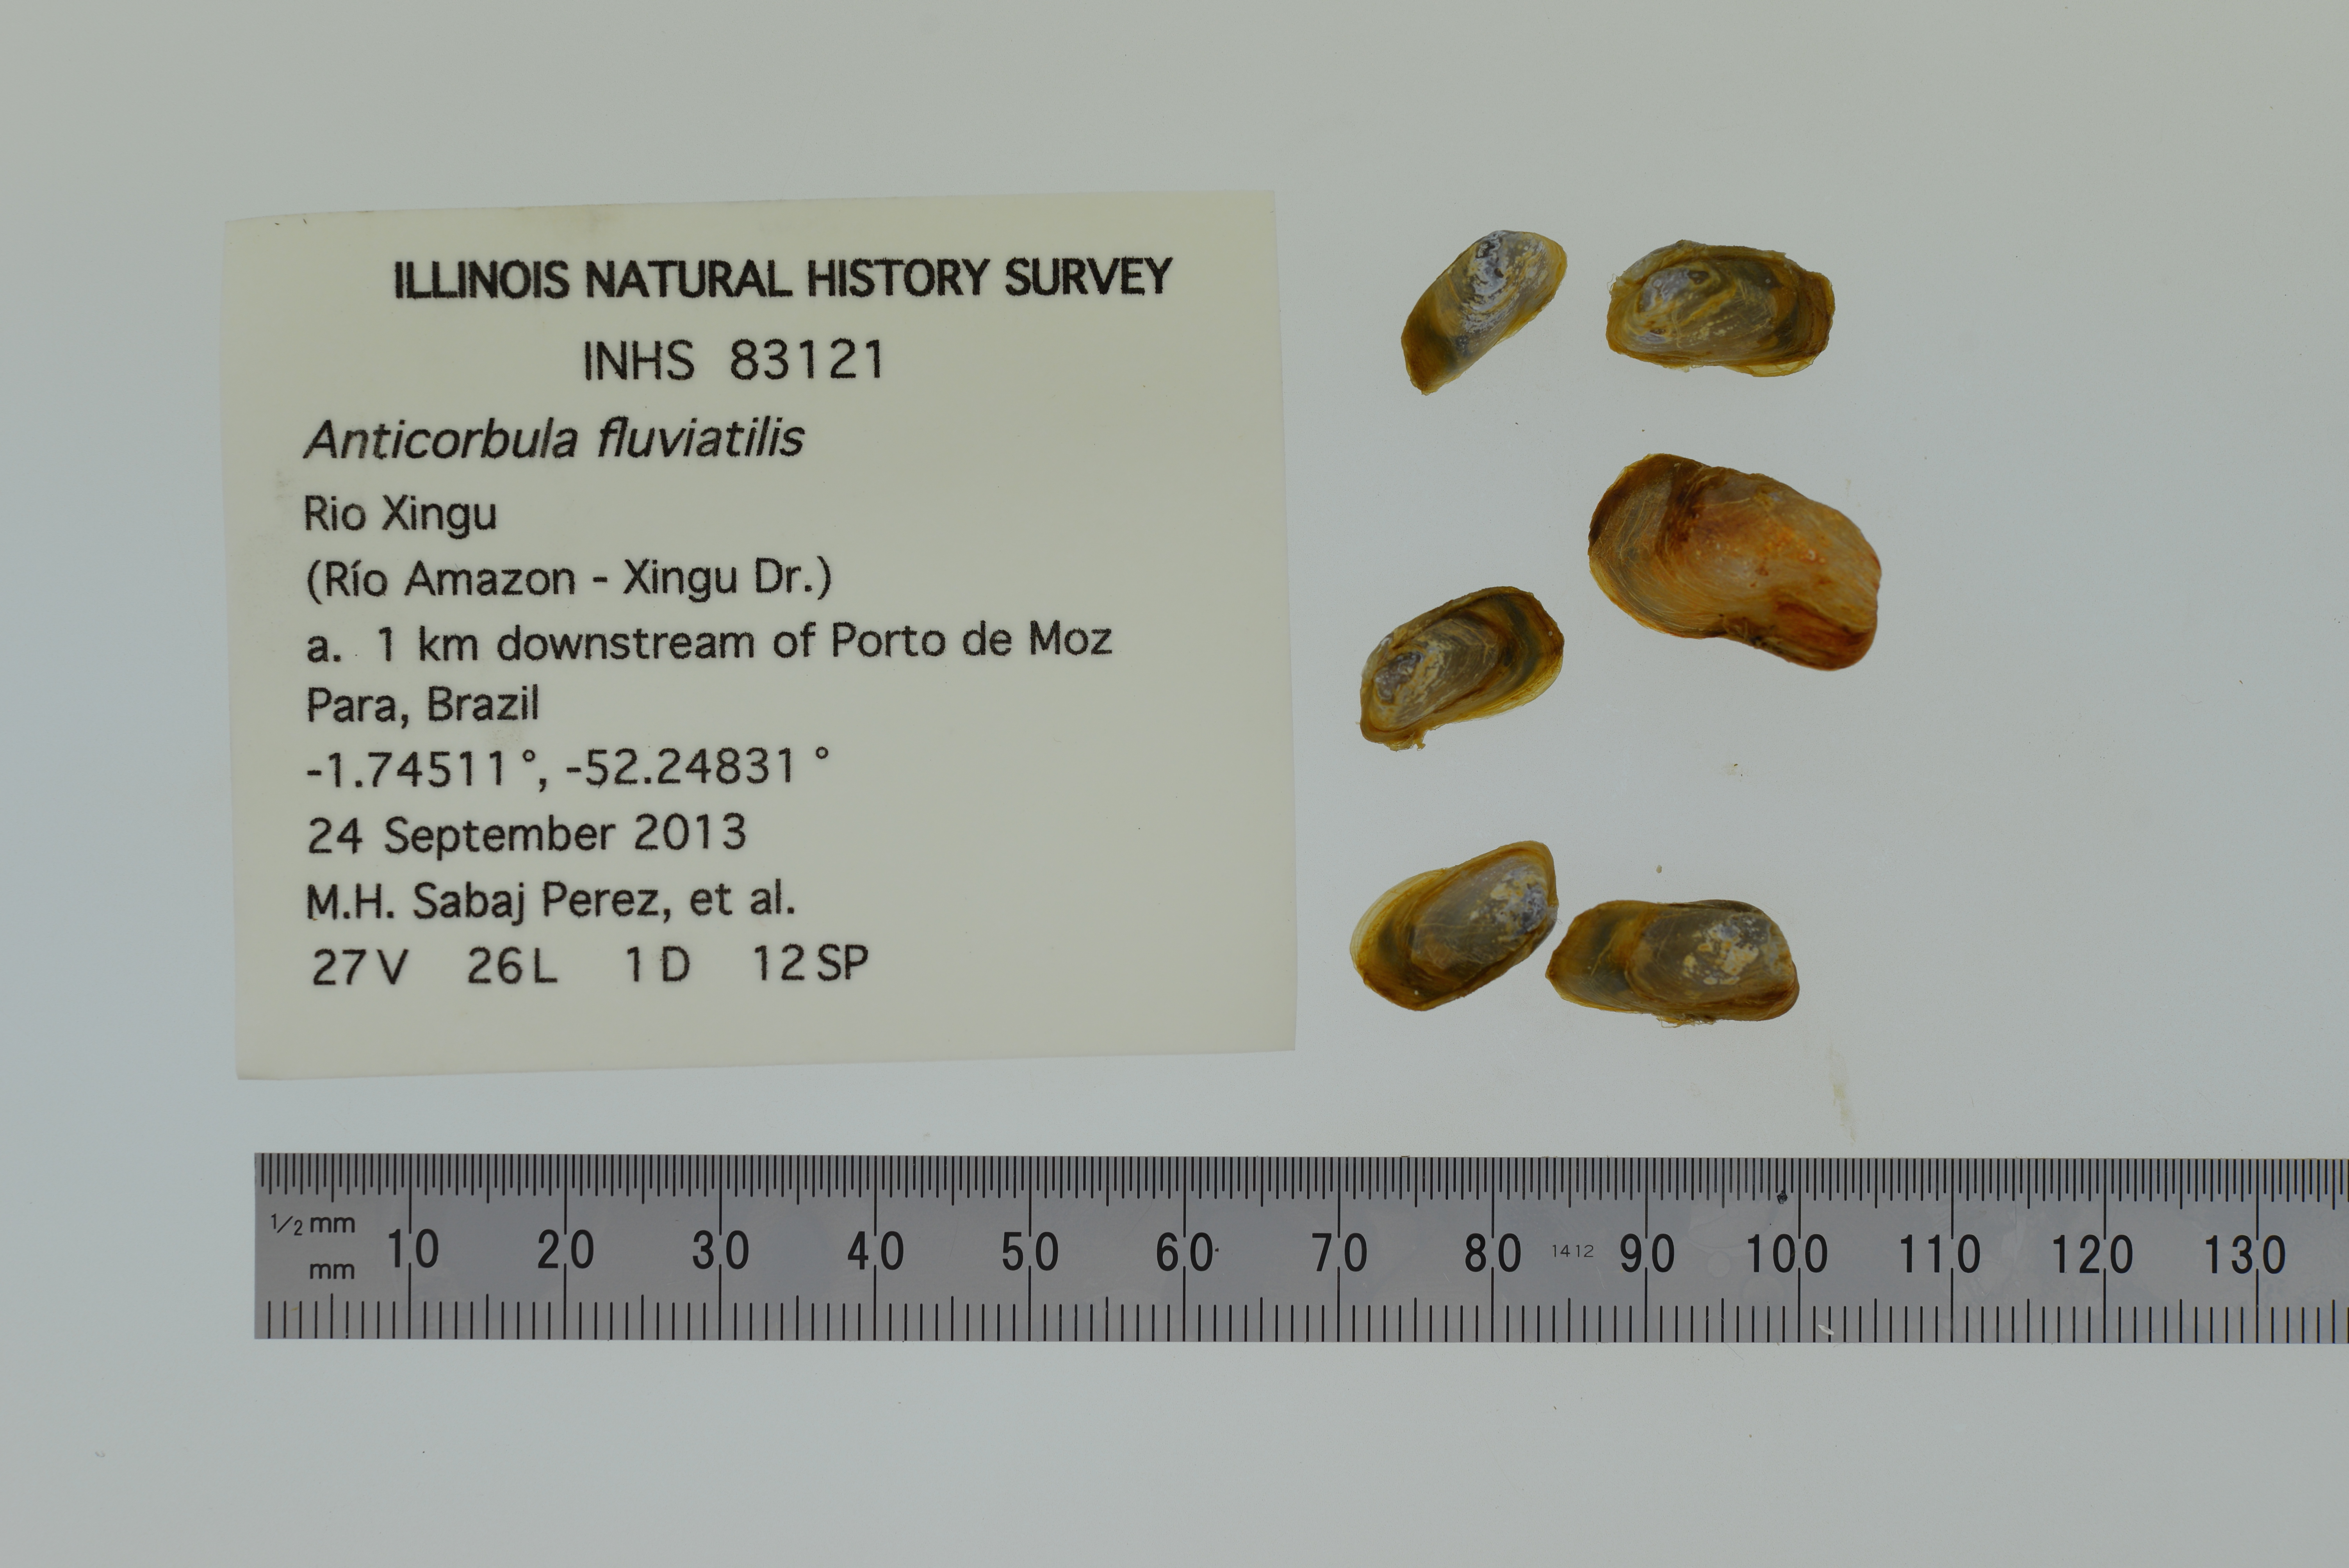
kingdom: Animalia
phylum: Mollusca
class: Bivalvia
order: Myida
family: Corbulidae
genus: Anticorbula
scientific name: Anticorbula fluviatilis
